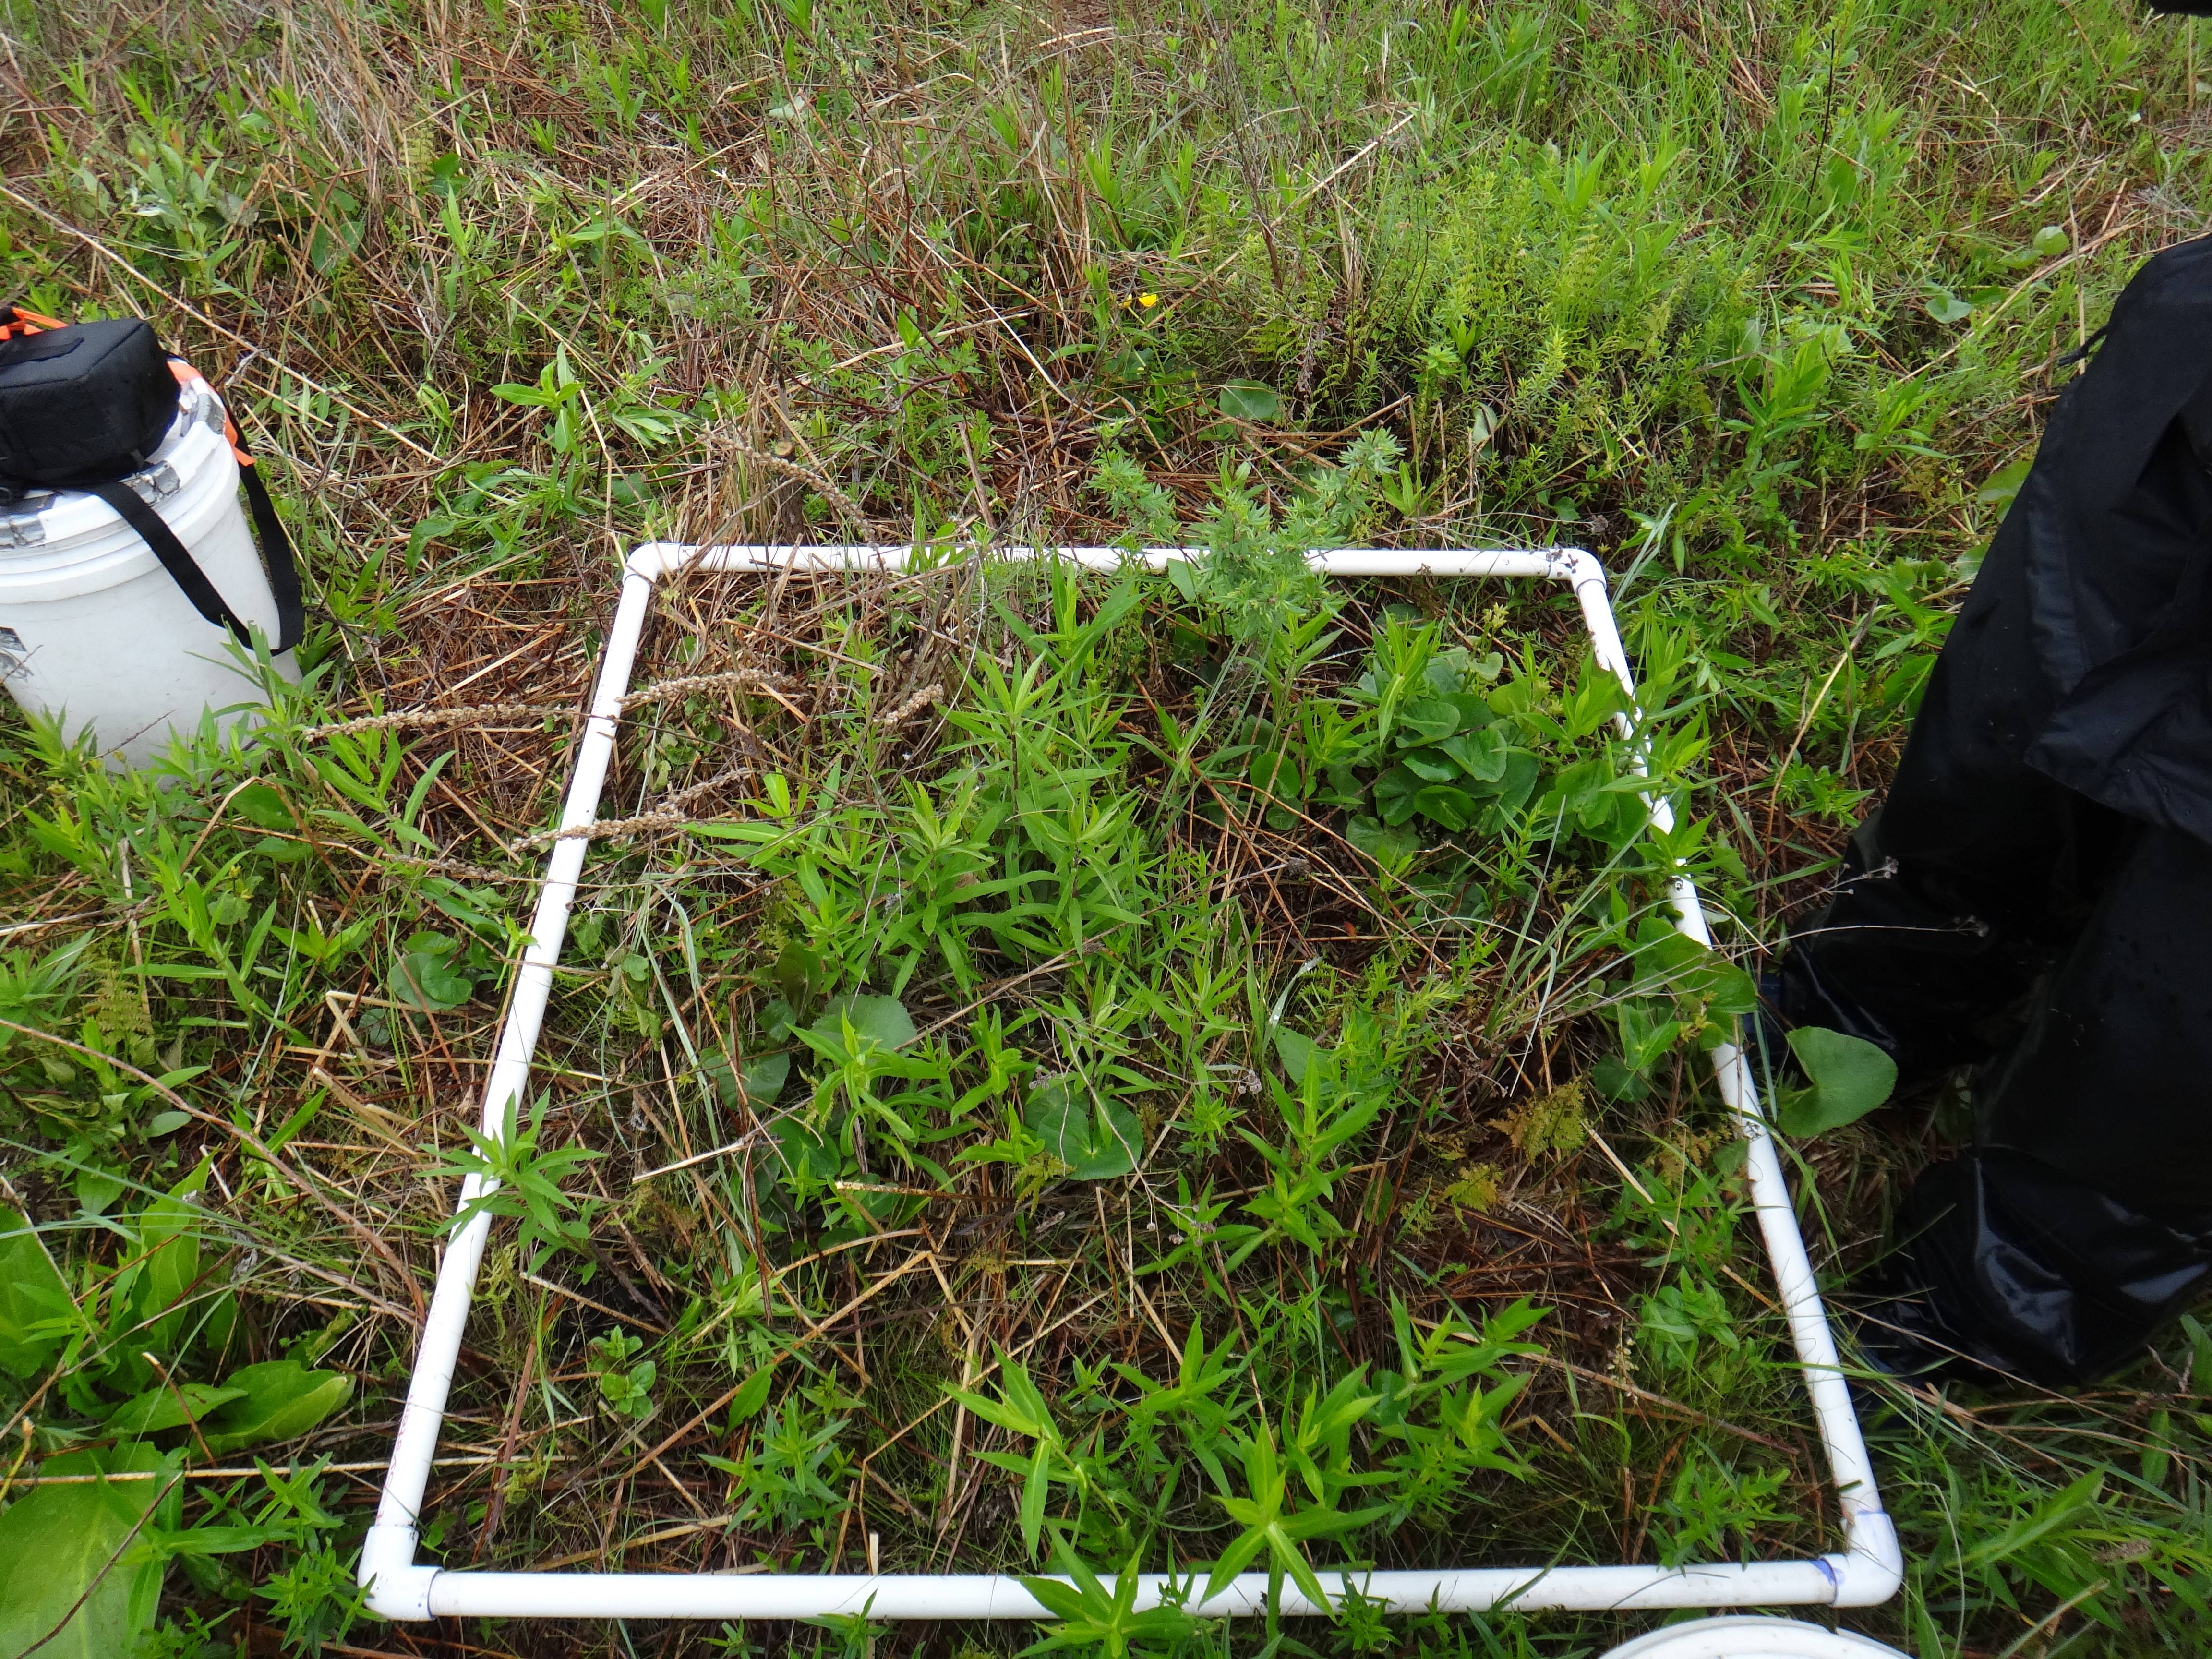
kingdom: Plantae
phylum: Tracheophyta
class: Liliopsida
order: Poales
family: Poaceae
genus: Sorghastrum
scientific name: Sorghastrum nutans
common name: Indian grass
